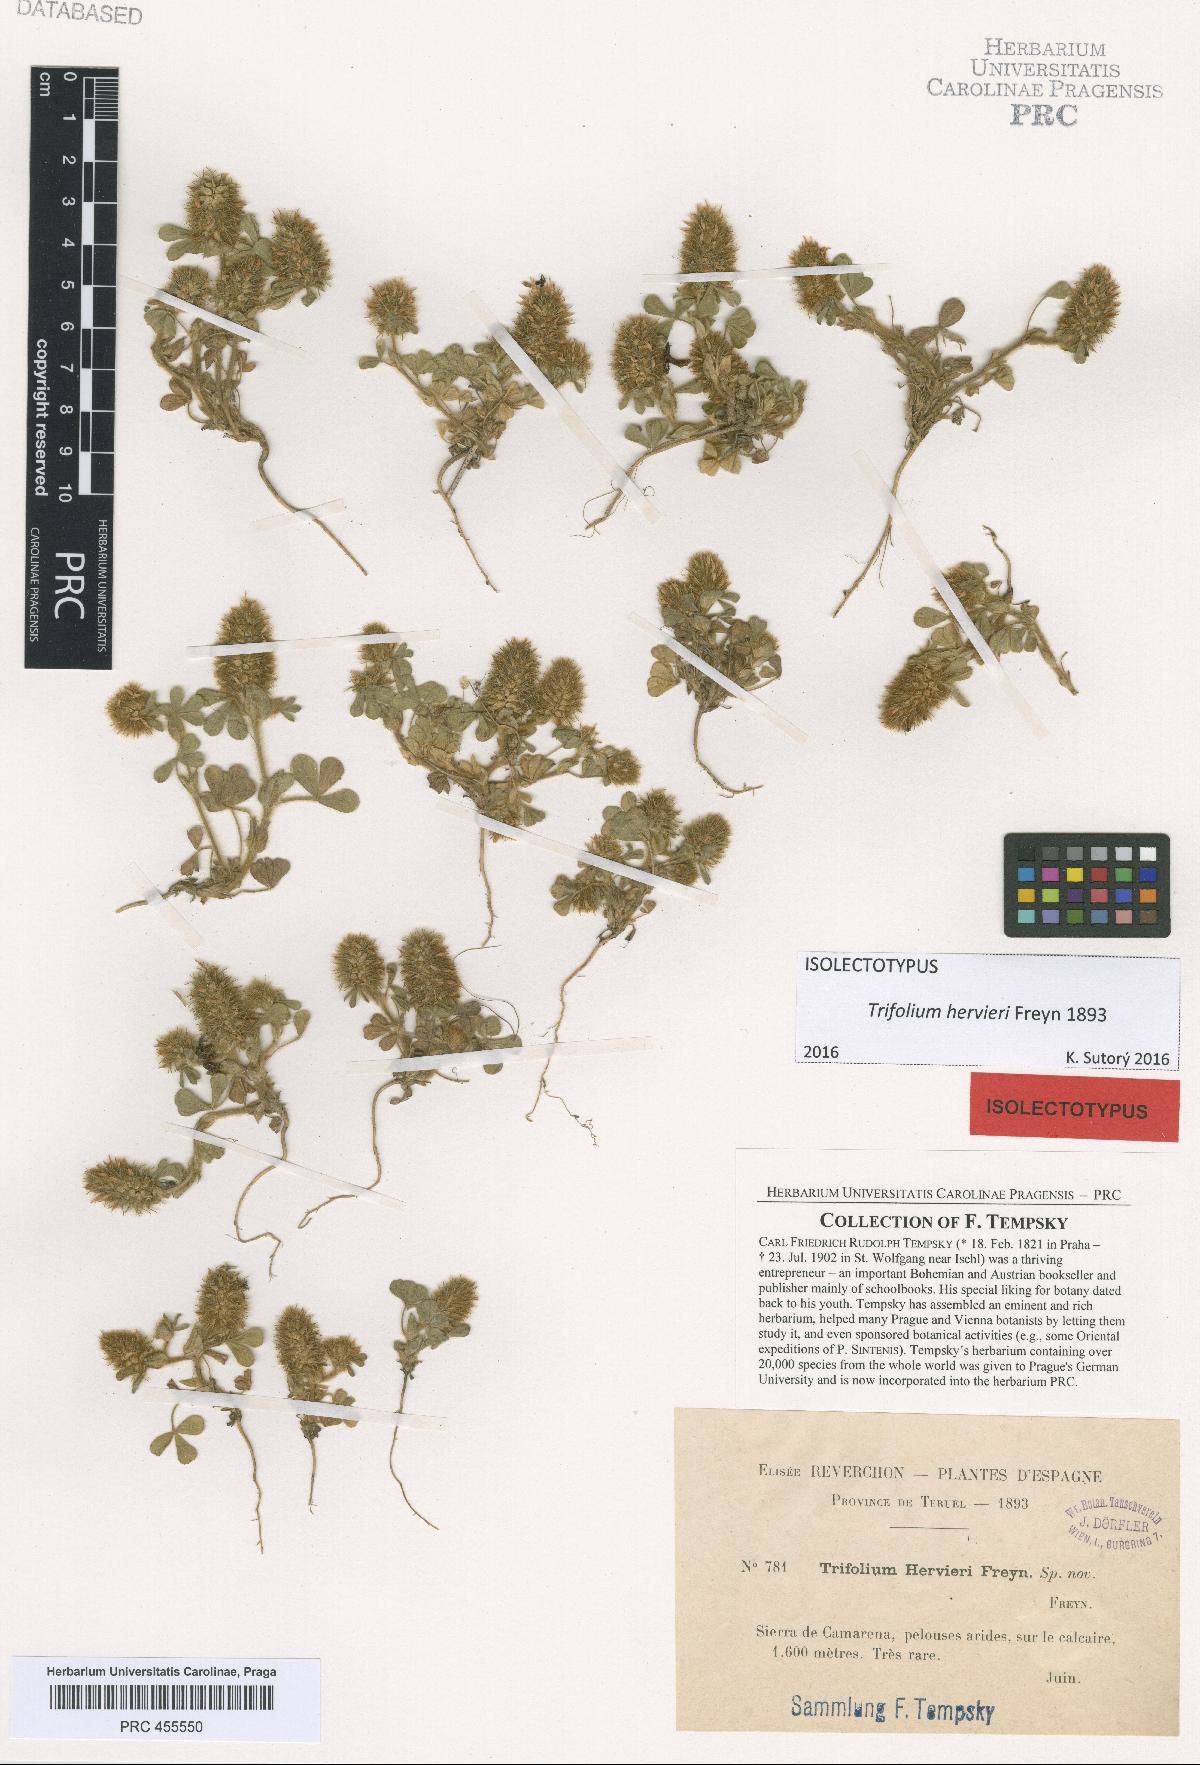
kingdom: Plantae
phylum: Tracheophyta
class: Magnoliopsida
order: Fabales
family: Fabaceae
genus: Trifolium
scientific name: Trifolium sylvaticum
